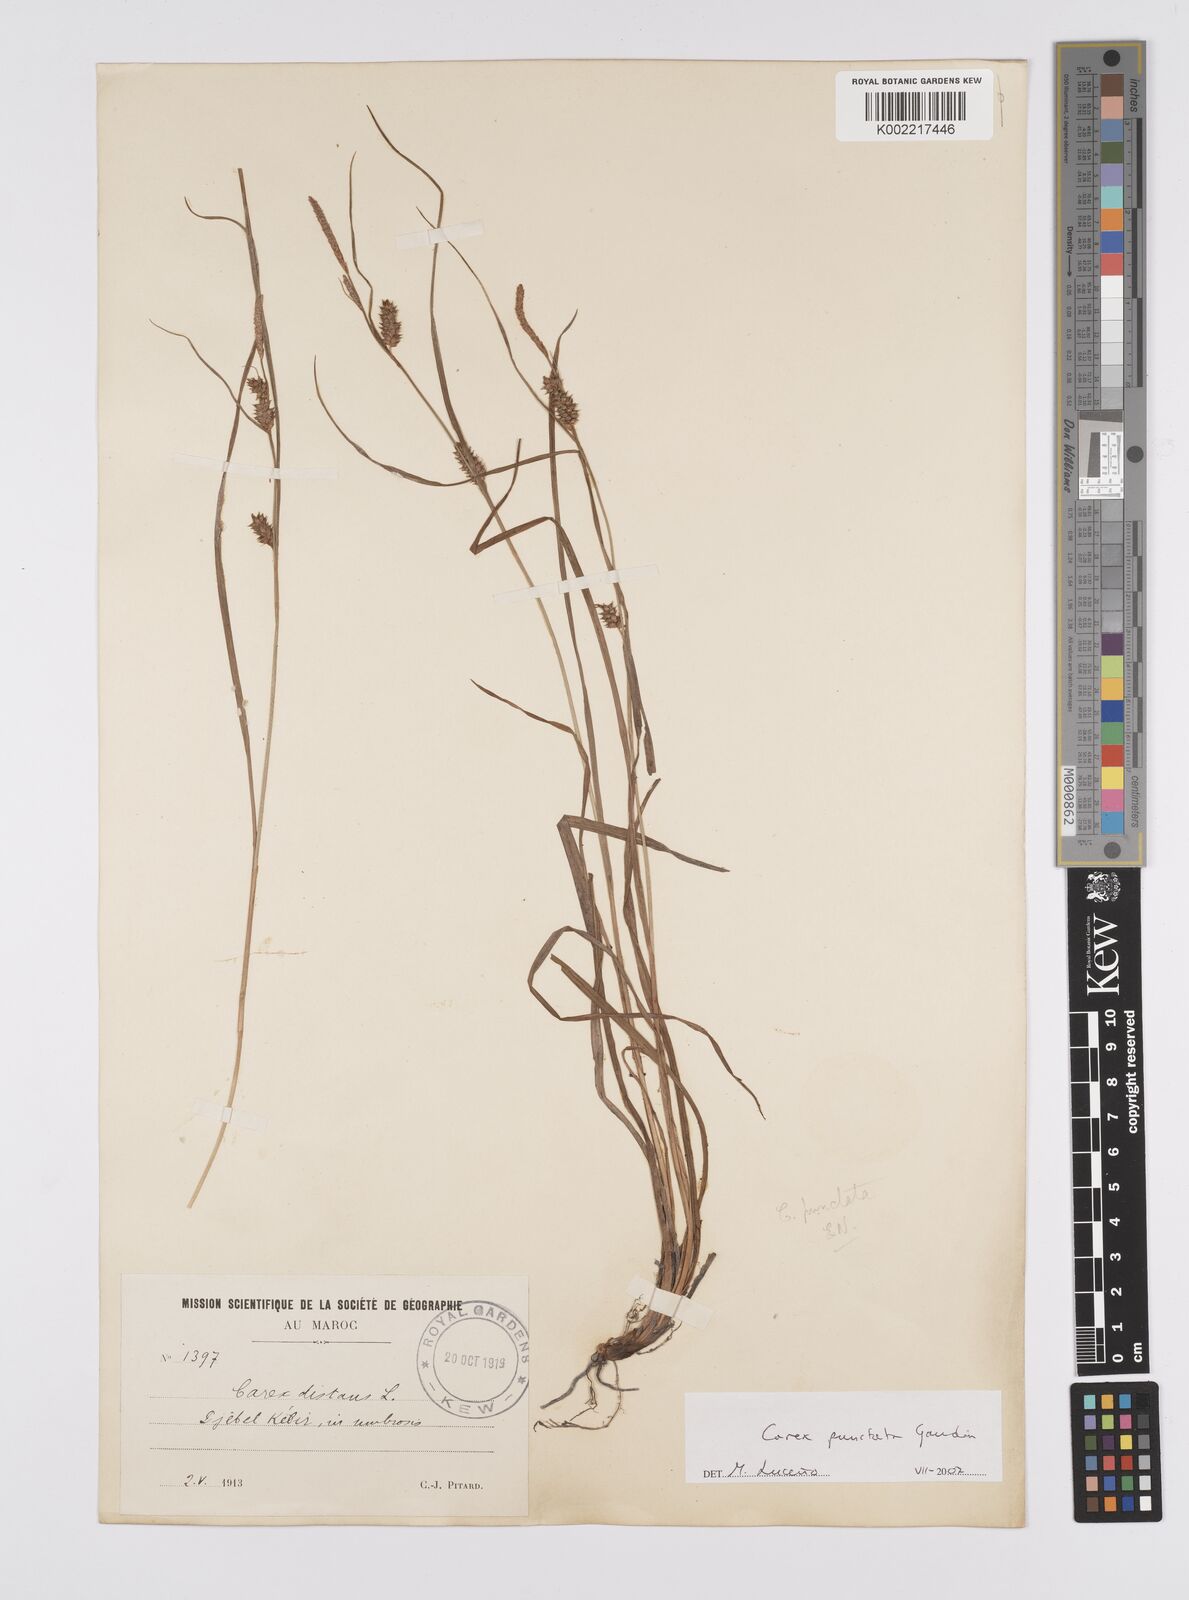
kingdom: Plantae
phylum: Tracheophyta
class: Liliopsida
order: Poales
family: Cyperaceae
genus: Carex
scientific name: Carex punctata
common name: Dotted sedge
